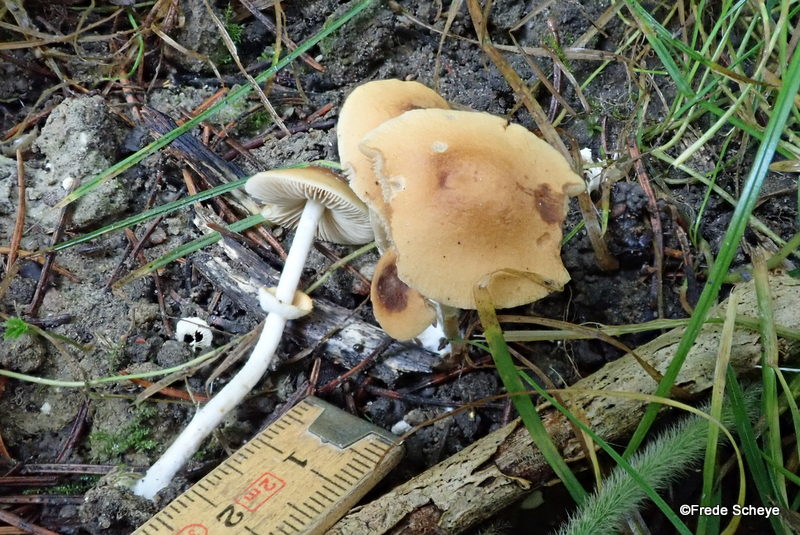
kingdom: Fungi
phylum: Basidiomycota
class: Agaricomycetes
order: Agaricales
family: Bolbitiaceae
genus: Conocybe
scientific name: Conocybe arrhenii
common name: ring-dansehat
